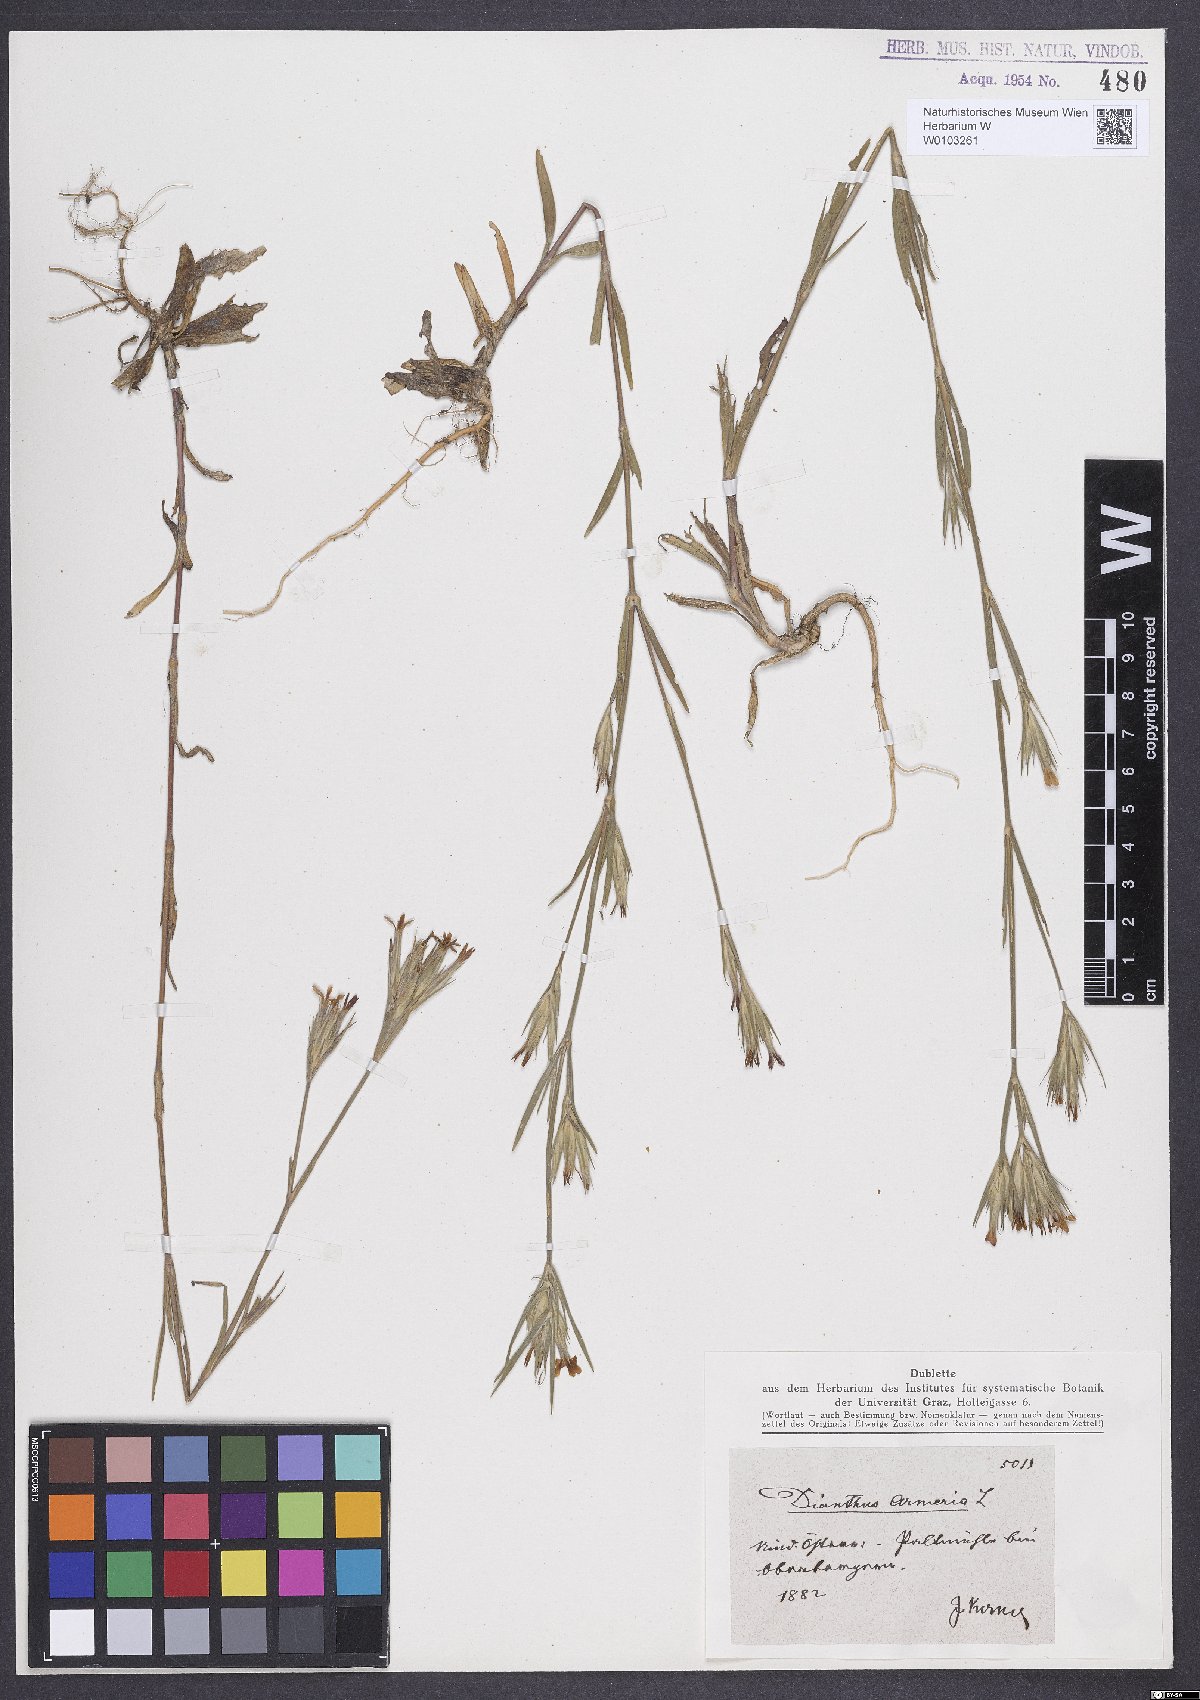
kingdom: Plantae
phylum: Tracheophyta
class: Magnoliopsida
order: Caryophyllales
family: Caryophyllaceae
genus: Dianthus
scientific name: Dianthus armeria
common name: Deptford pink
